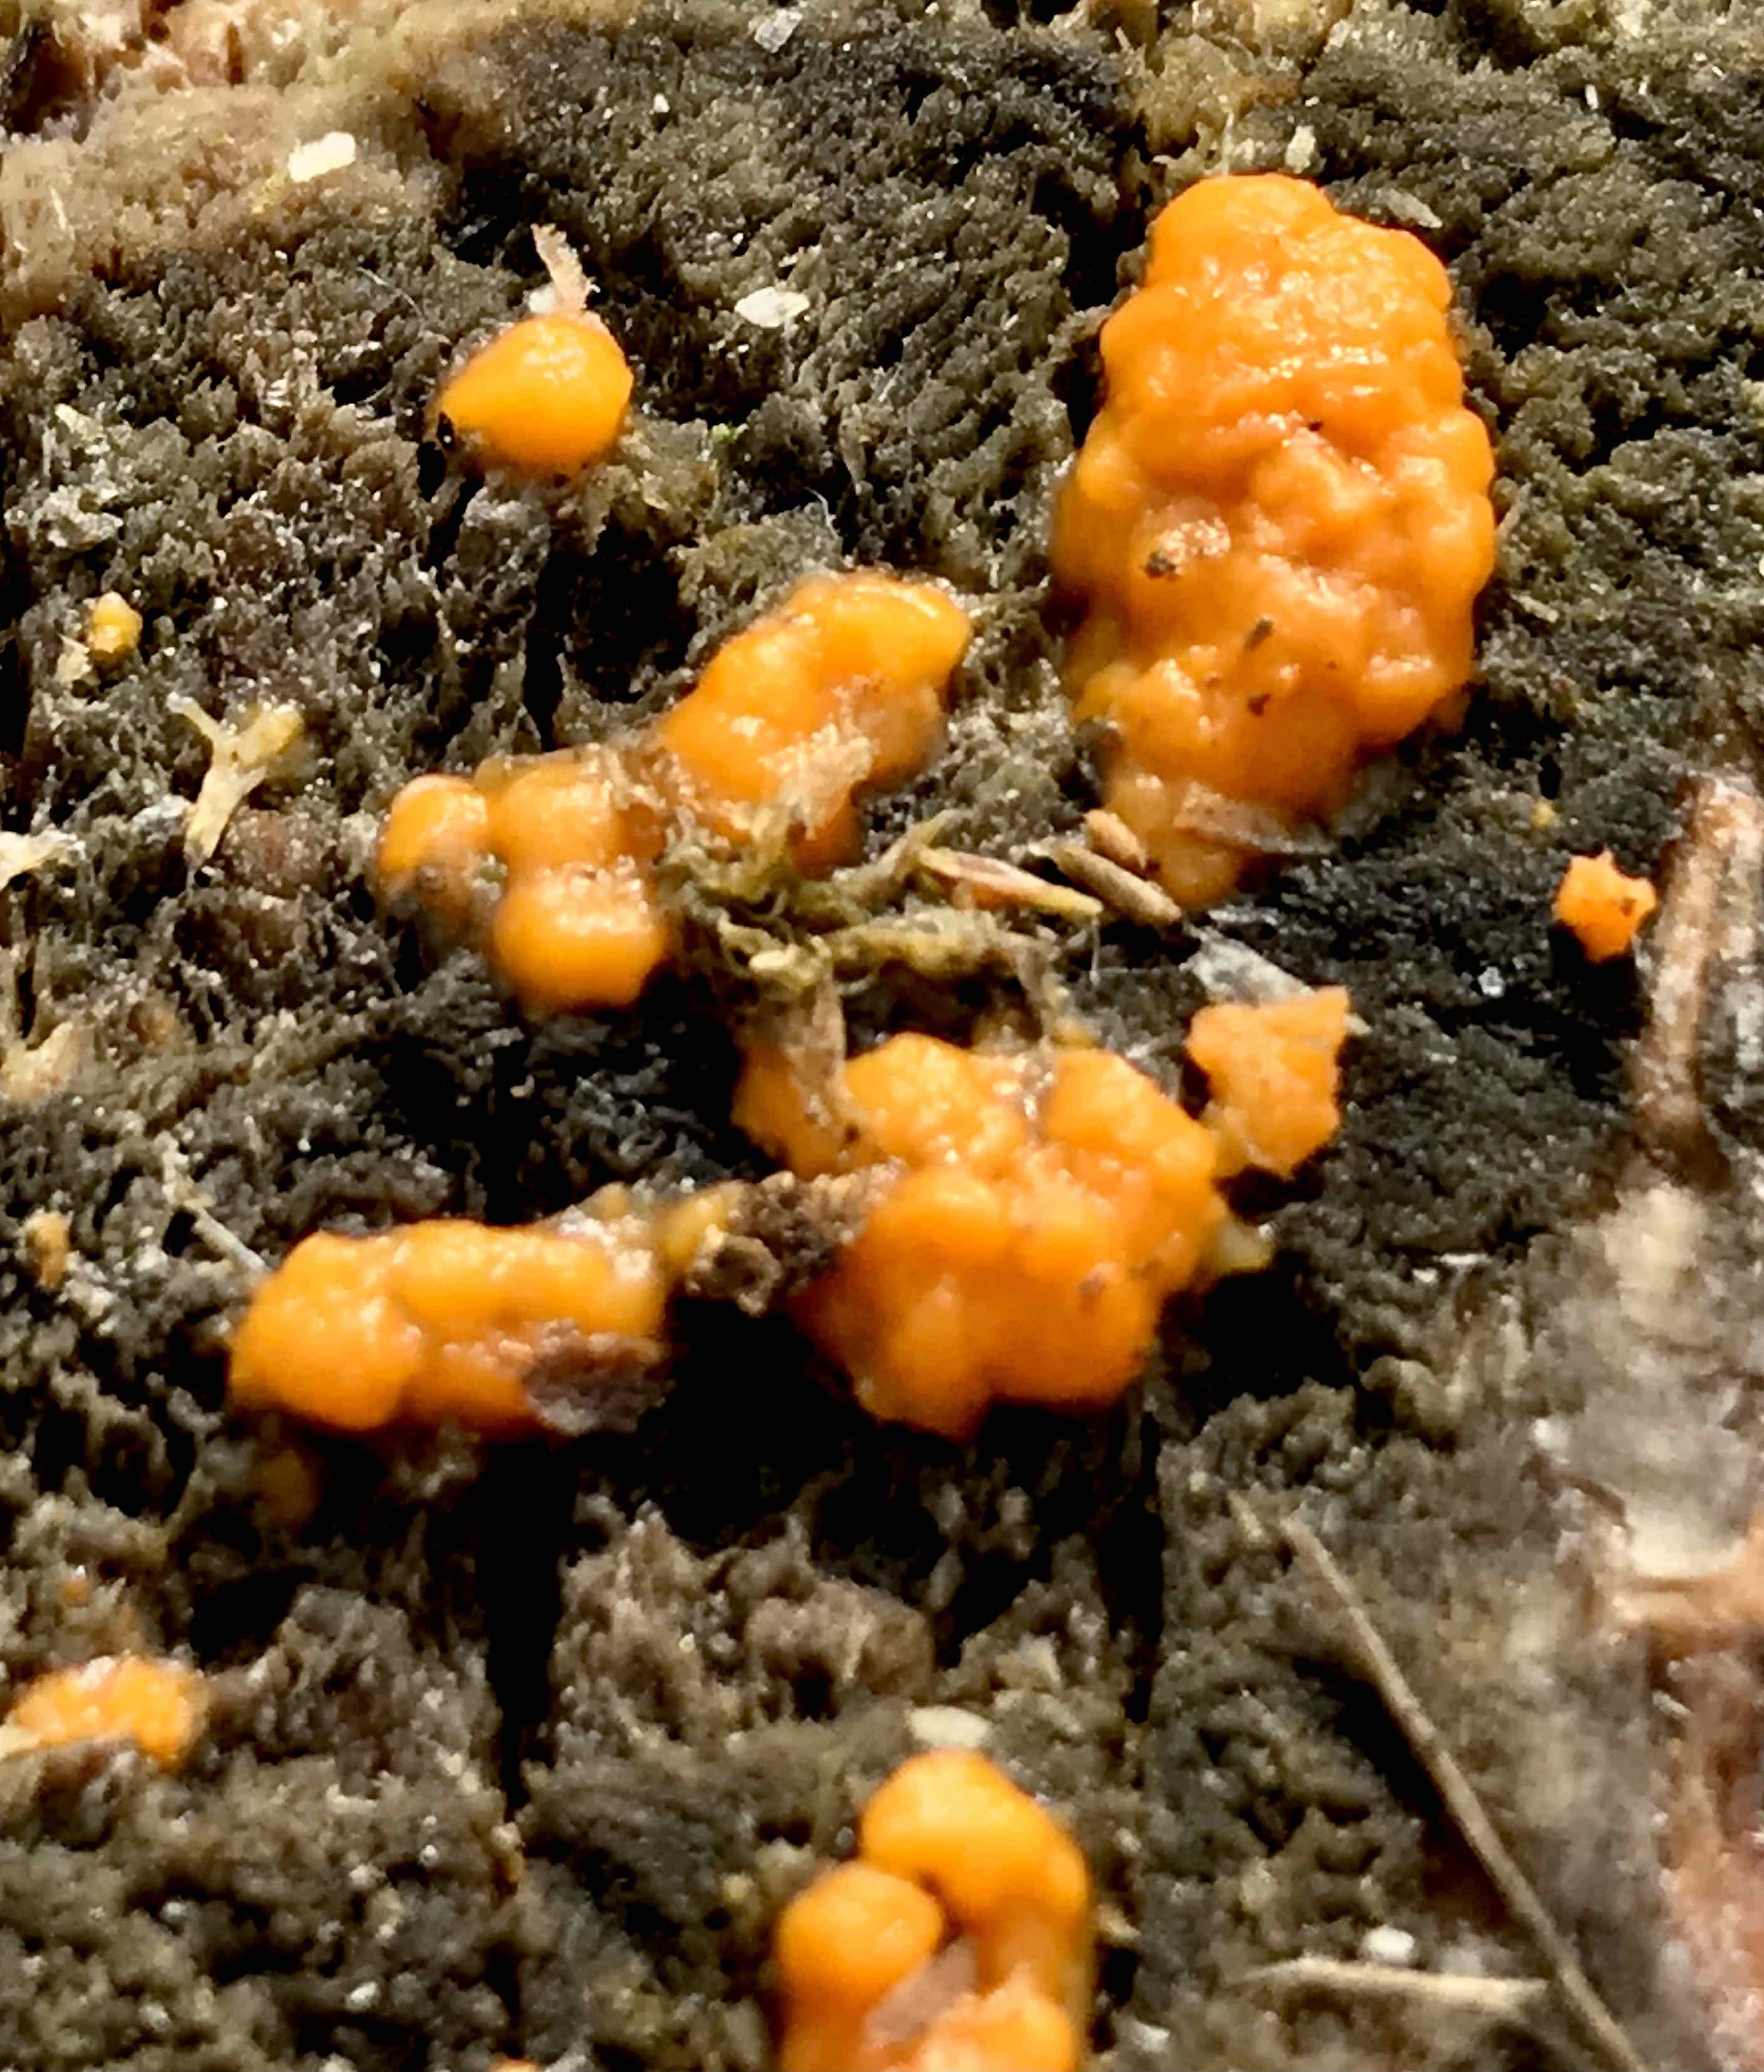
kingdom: Fungi
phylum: Basidiomycota
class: Dacrymycetes
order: Dacrymycetales
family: Dacrymycetaceae
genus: Dacrymyces
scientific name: Dacrymyces stillatus
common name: almindelig tåresvamp
